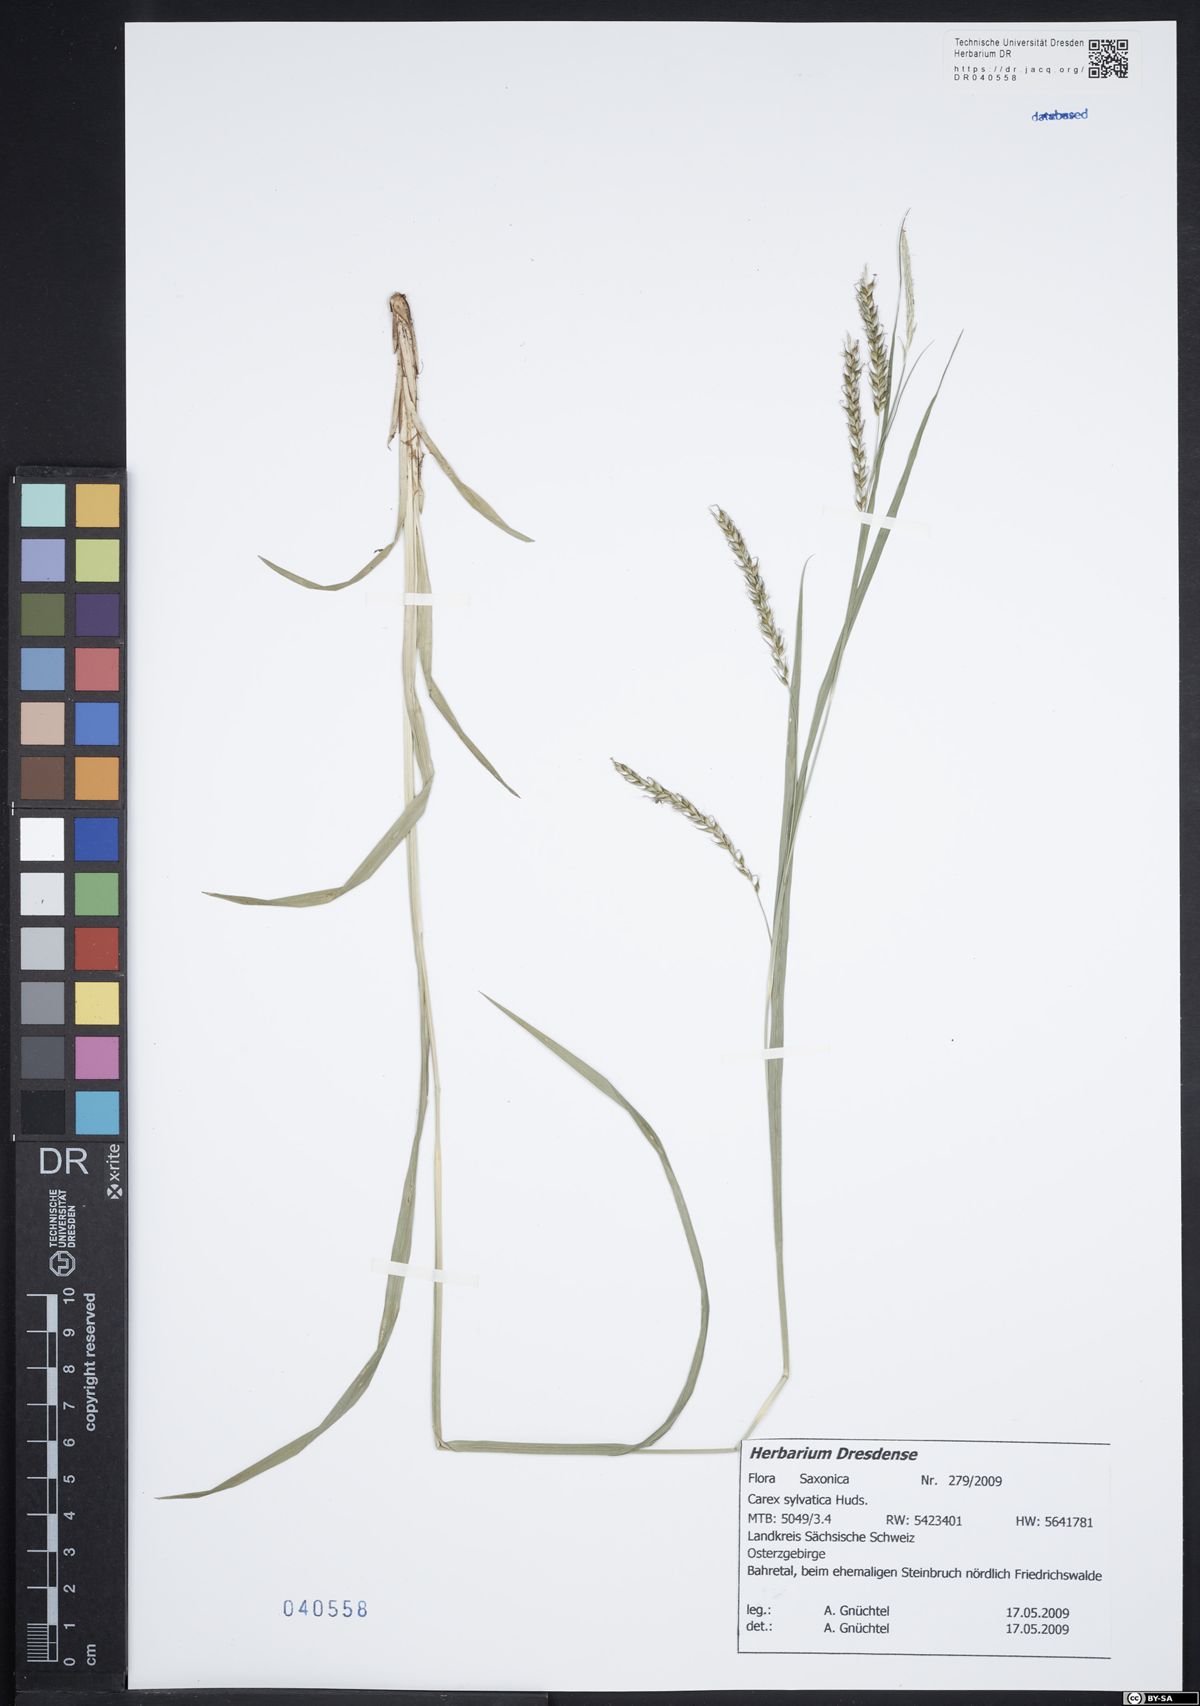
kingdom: Plantae
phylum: Tracheophyta
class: Liliopsida
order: Poales
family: Cyperaceae
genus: Carex
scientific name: Carex sylvatica
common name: Wood-sedge
